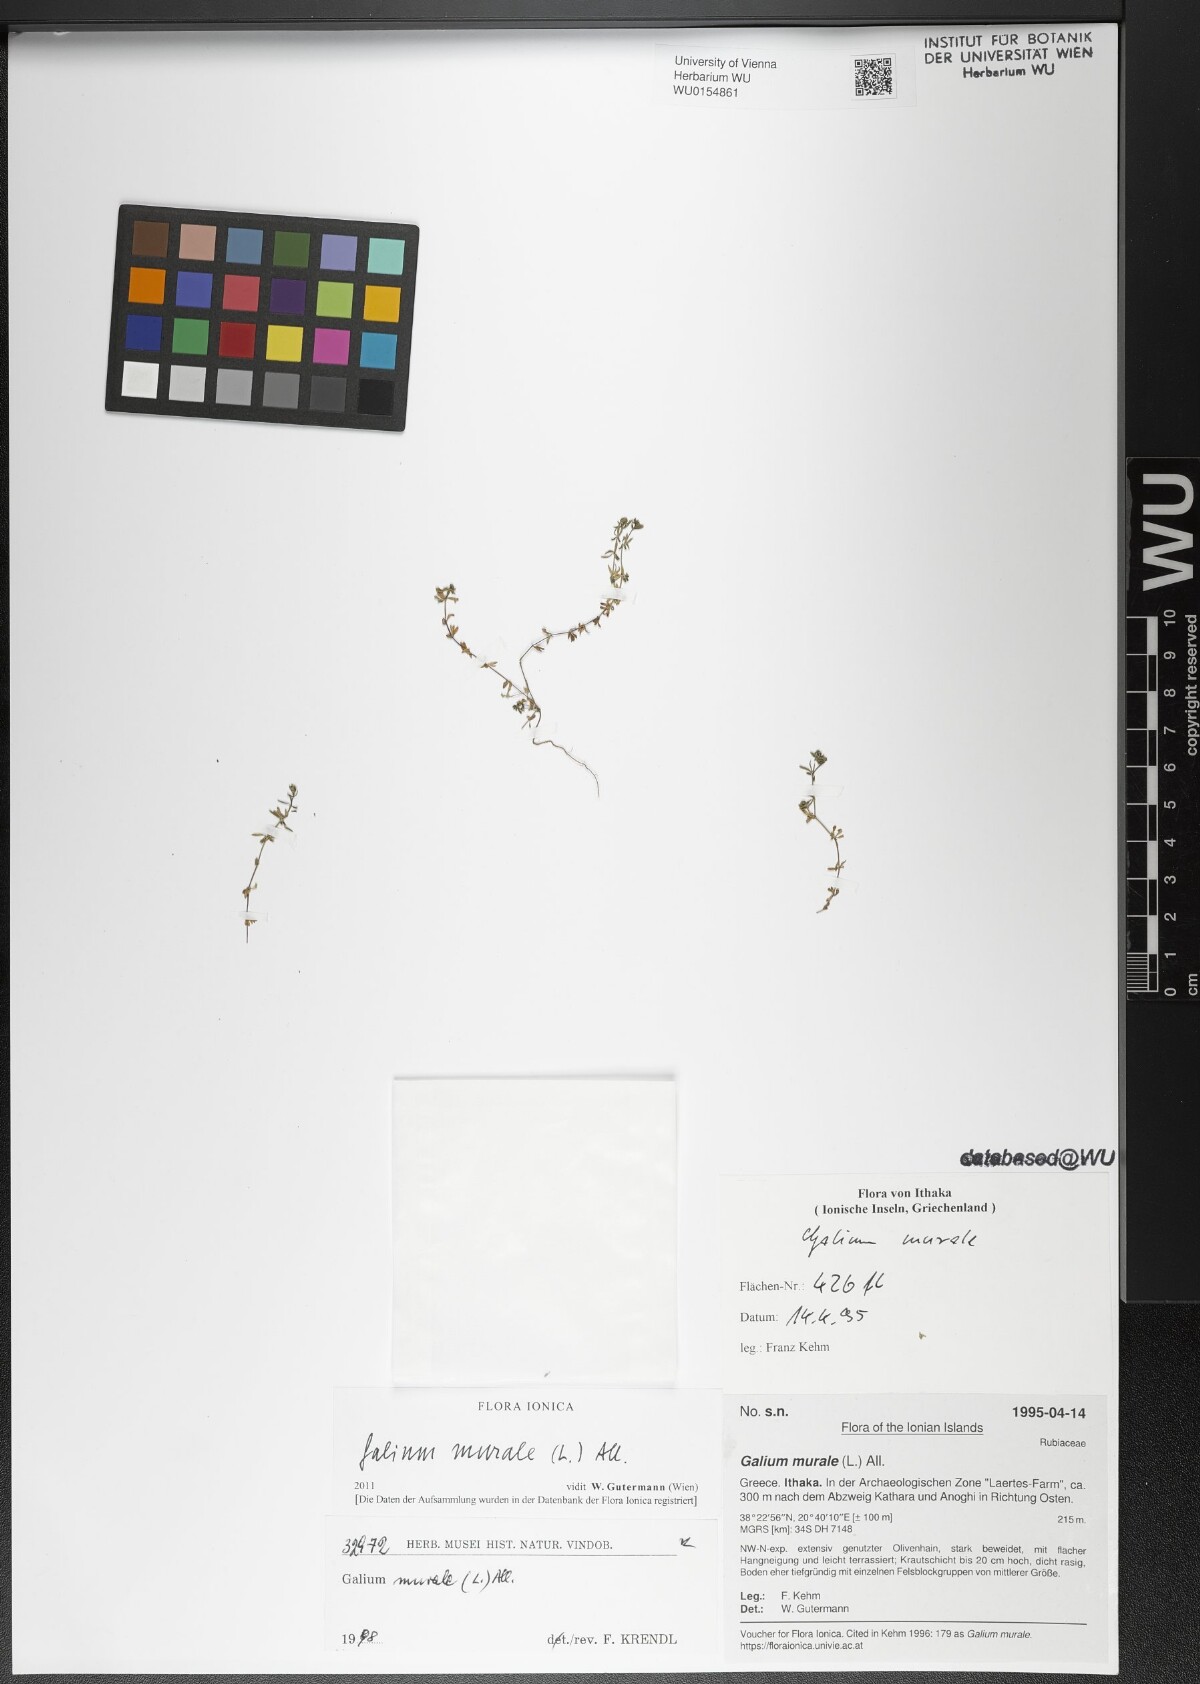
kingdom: Plantae
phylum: Tracheophyta
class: Magnoliopsida
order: Gentianales
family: Rubiaceae
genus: Galium
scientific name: Galium murale
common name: Yellow wall bedstraw
